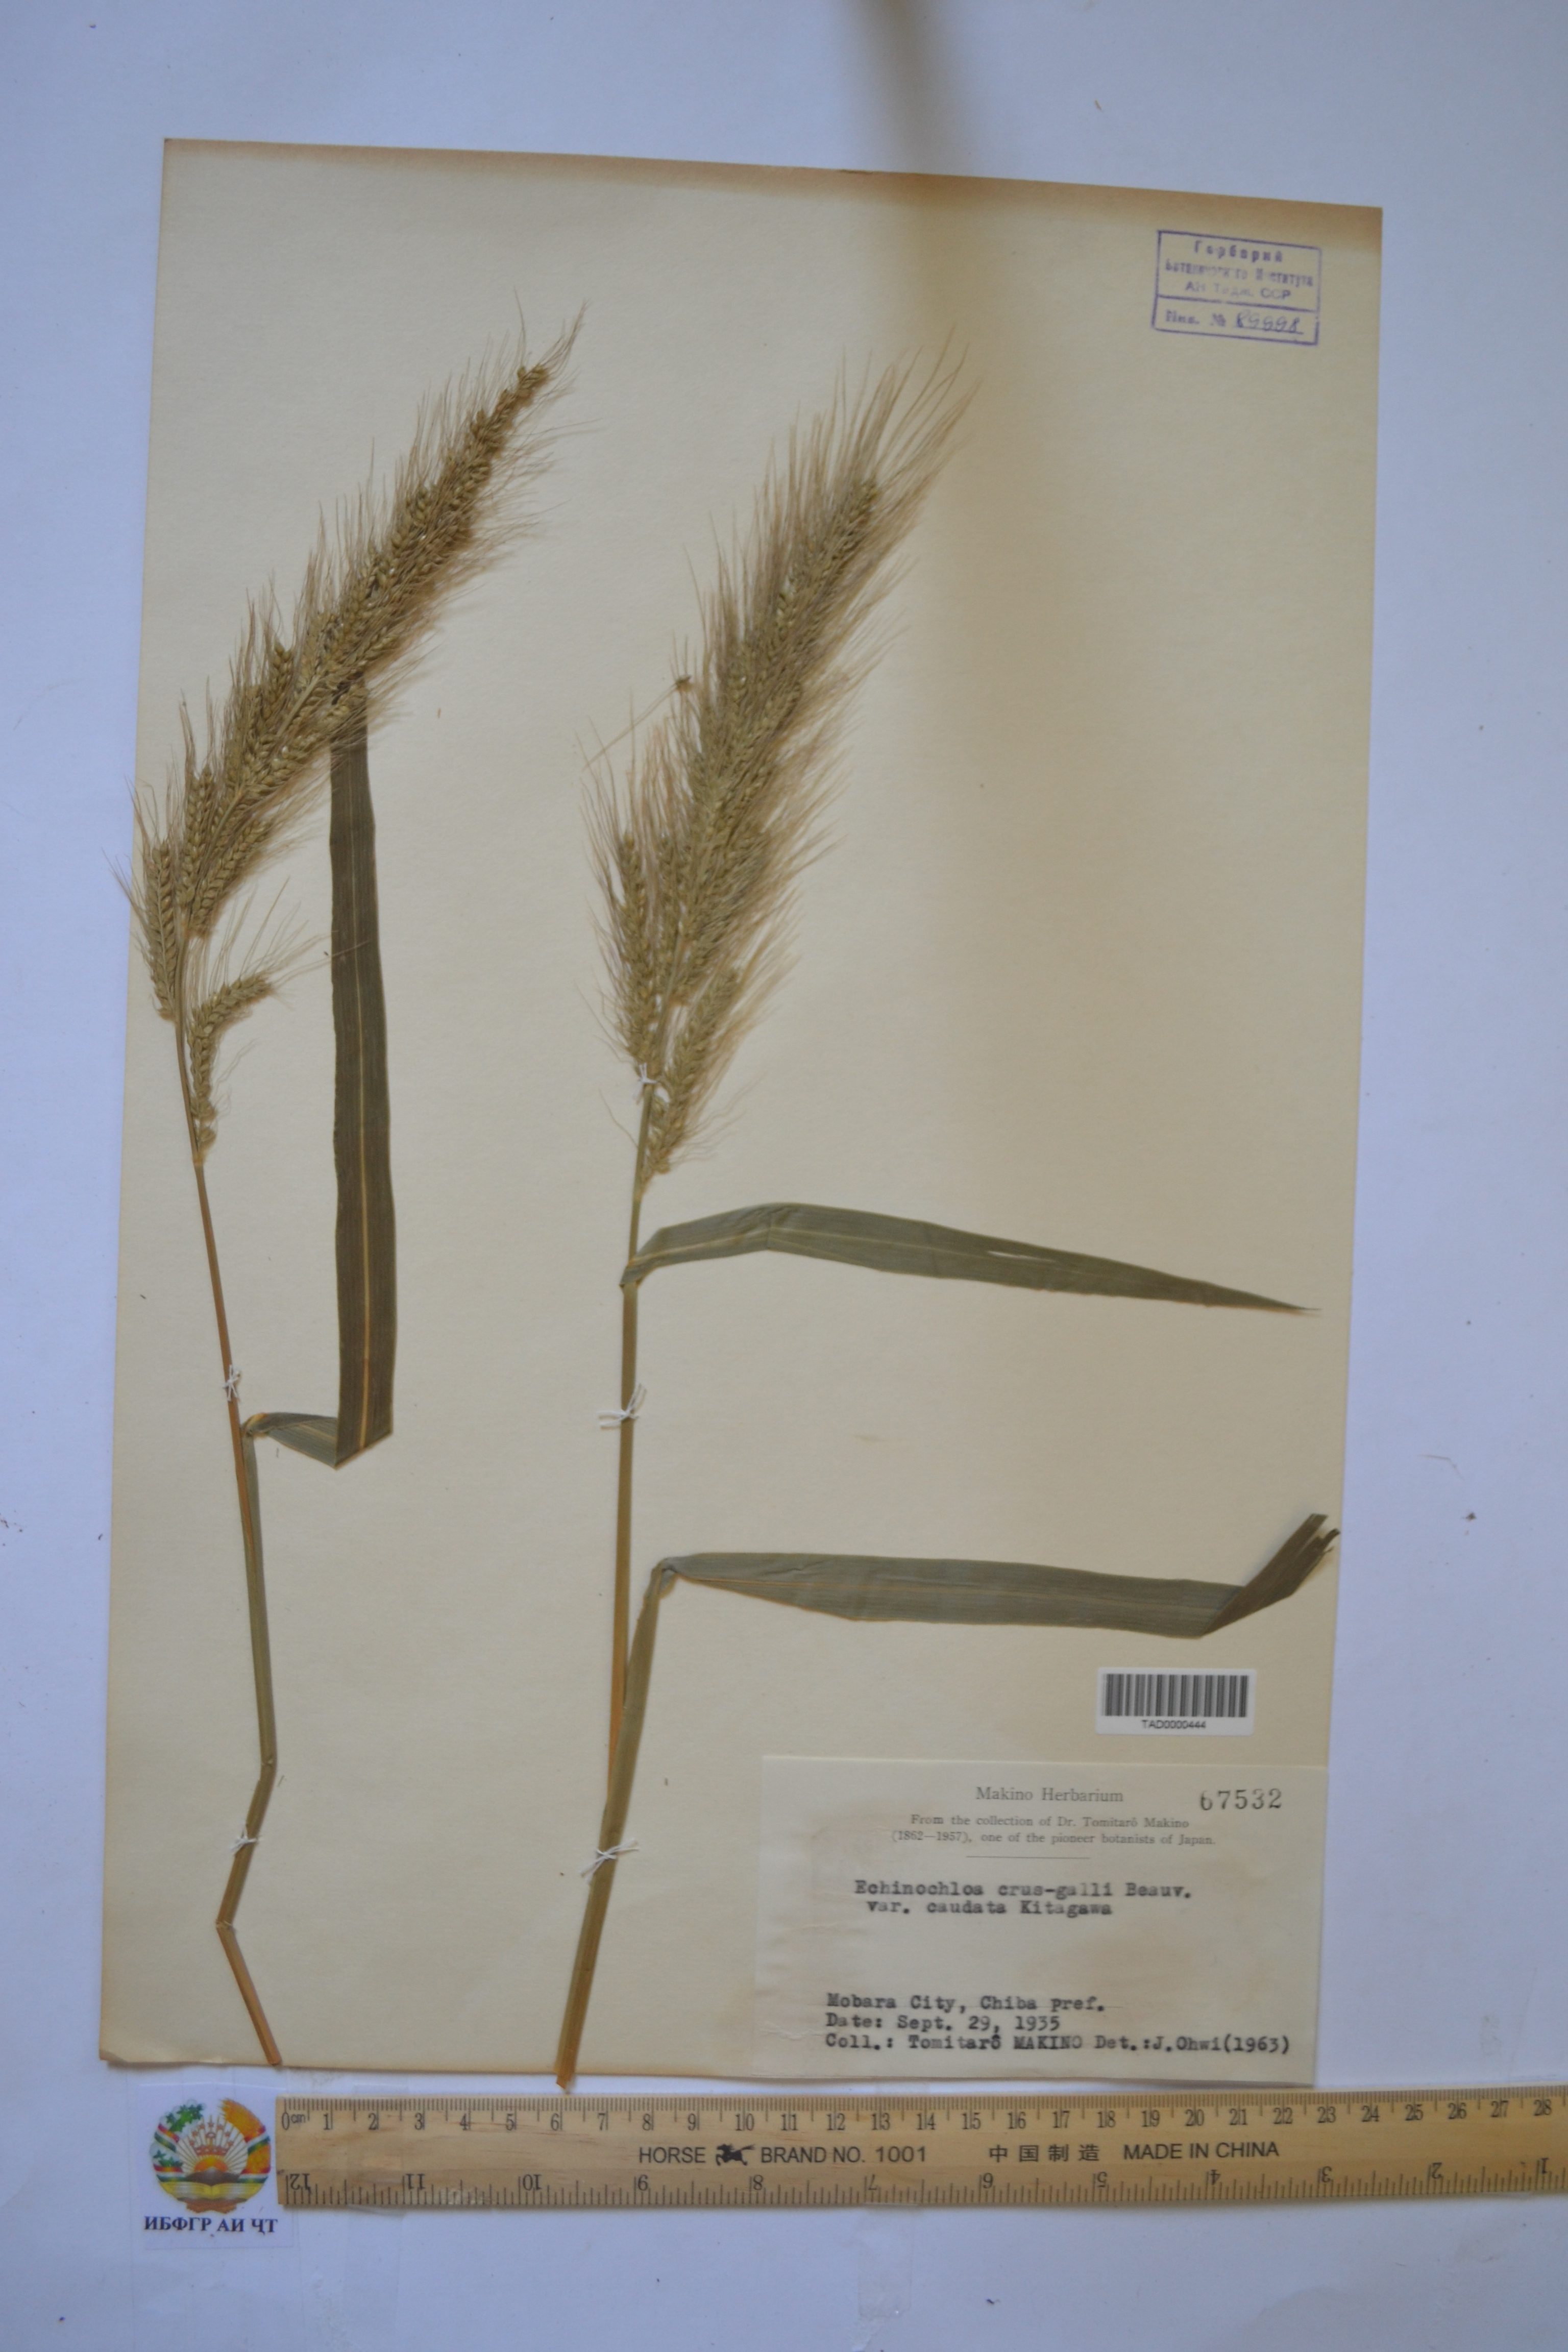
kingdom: Plantae
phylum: Tracheophyta
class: Liliopsida
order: Poales
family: Poaceae
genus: Echinochloa
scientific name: Echinochloa crus-galli
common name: Cockspur
